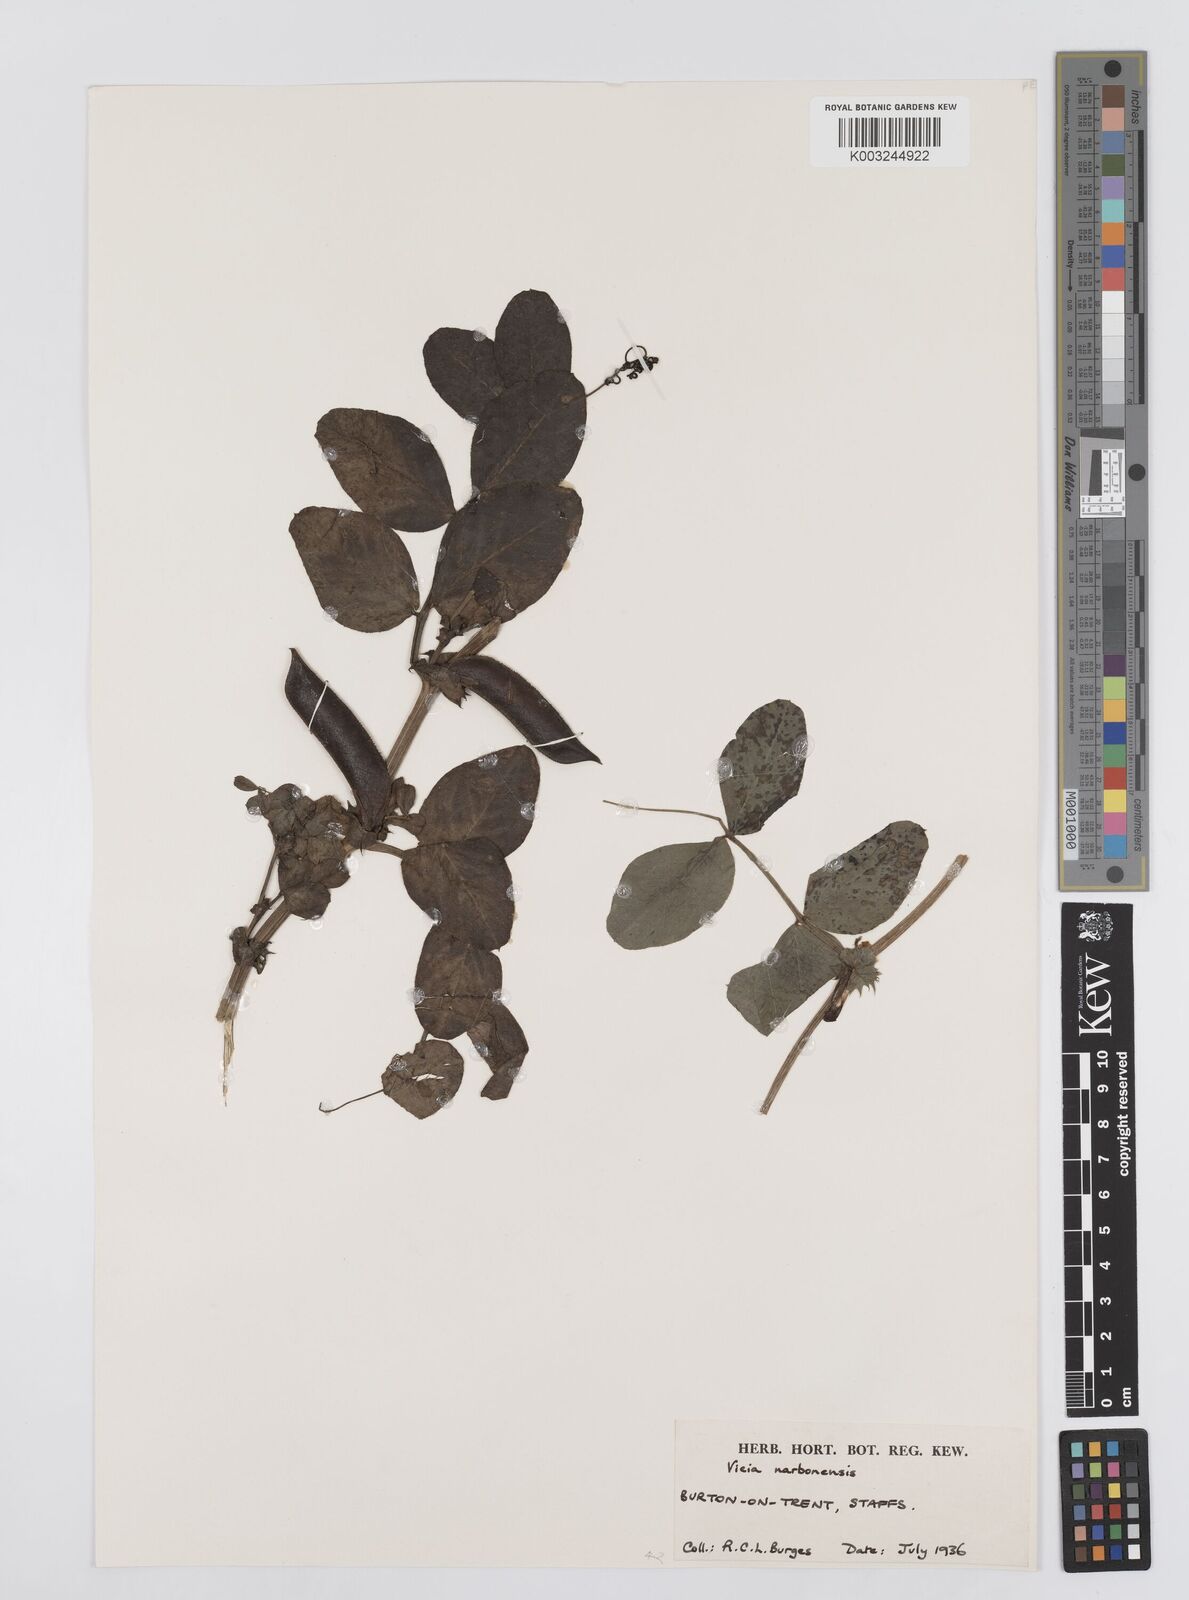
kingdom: Plantae
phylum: Tracheophyta
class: Magnoliopsida
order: Fabales
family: Fabaceae
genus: Vicia
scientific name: Vicia narbonensis
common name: Narbonne vetch
